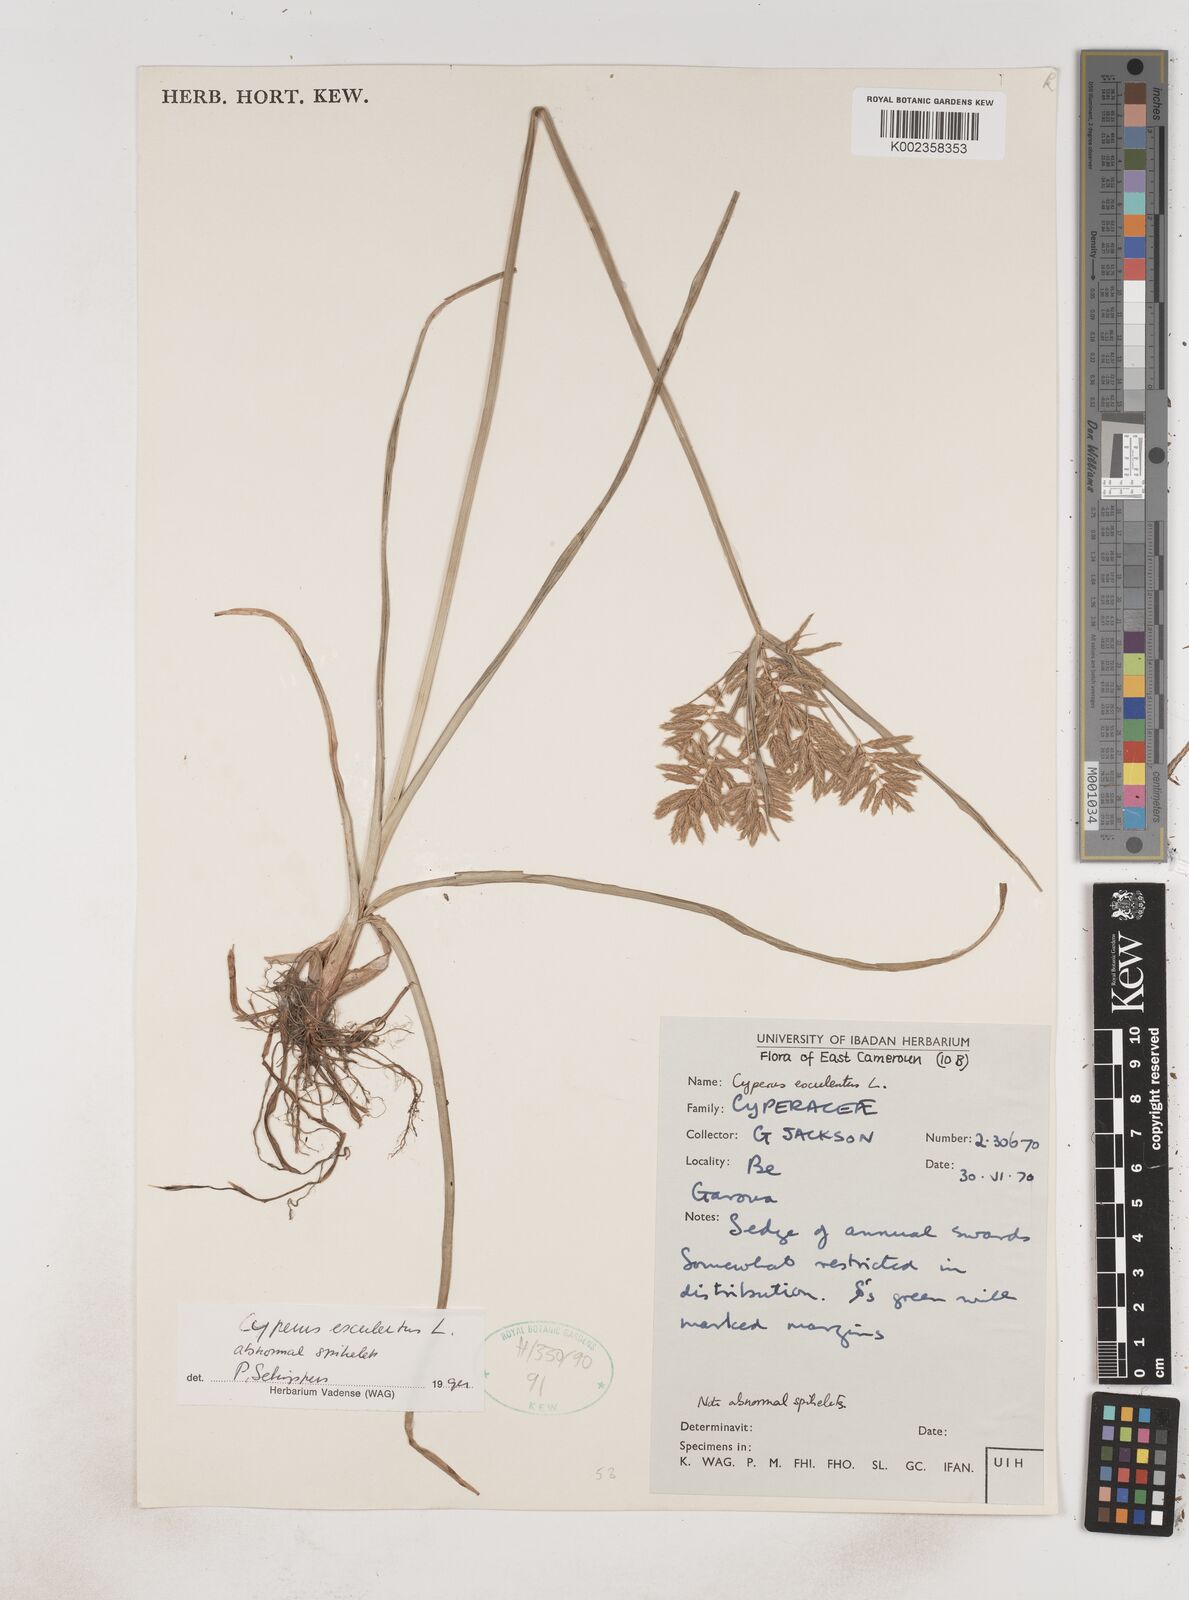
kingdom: Plantae
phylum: Tracheophyta
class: Liliopsida
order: Poales
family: Cyperaceae
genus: Cyperus
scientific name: Cyperus esculentus
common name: Yellow nutsedge
